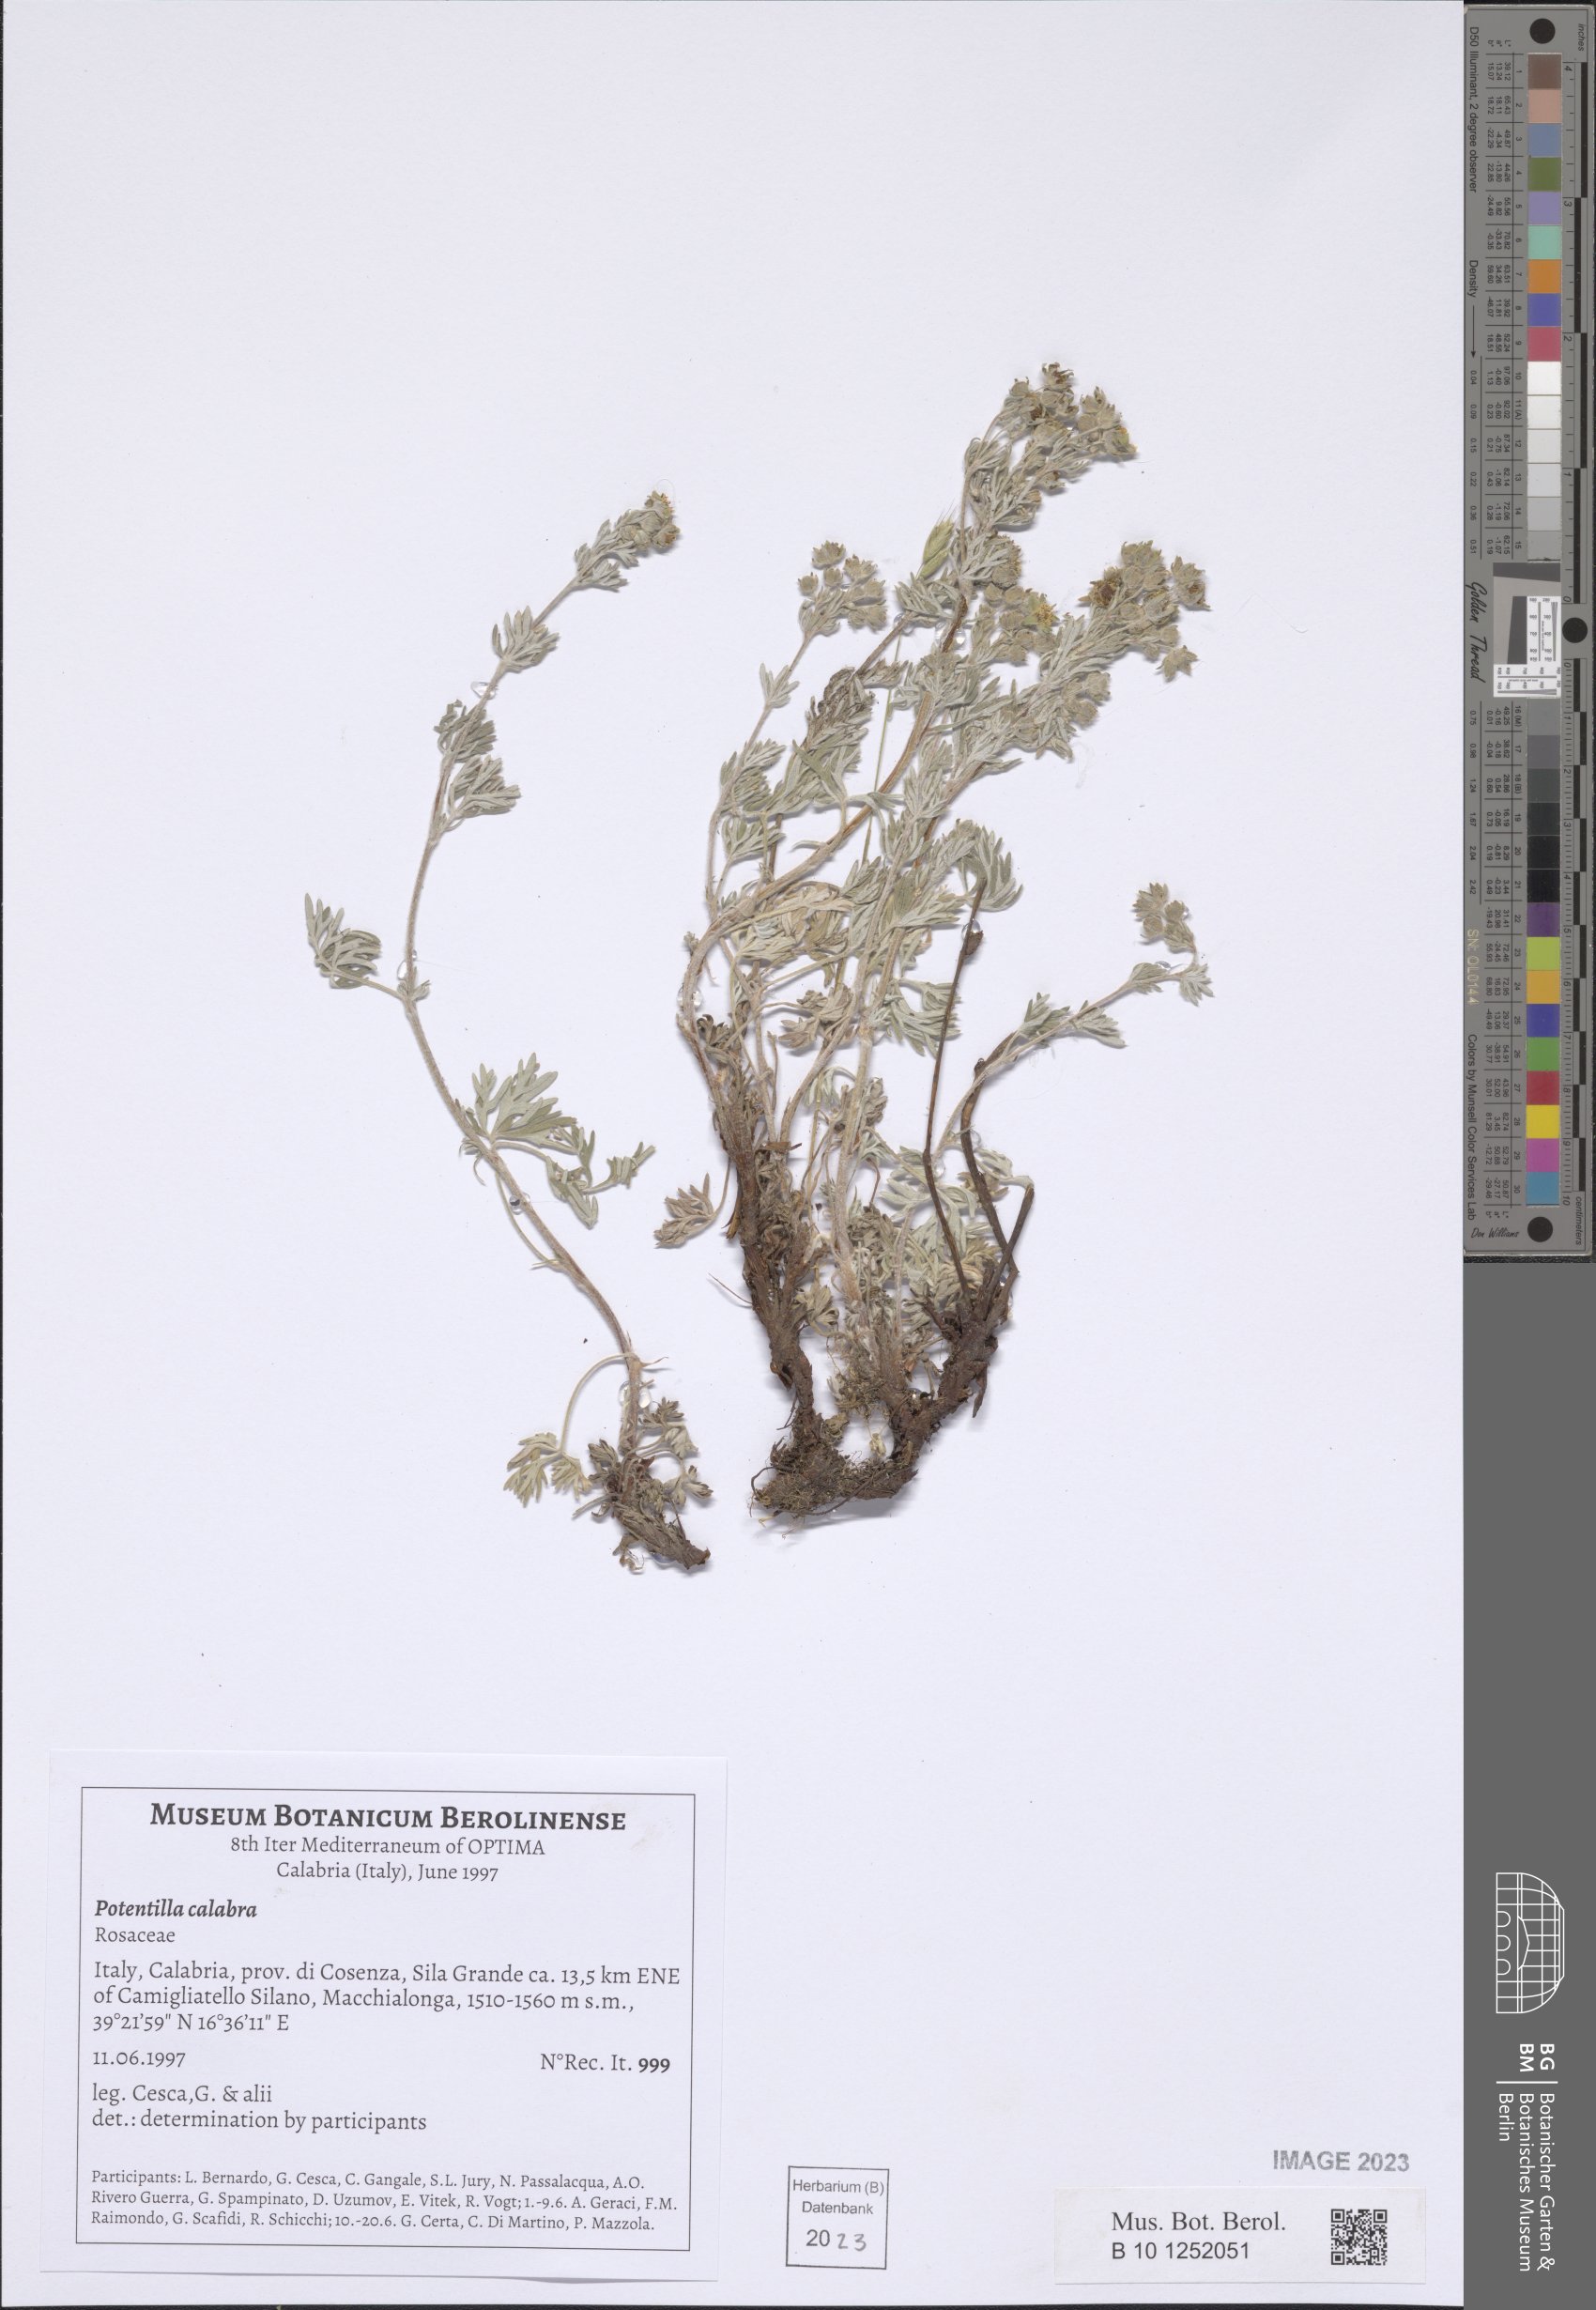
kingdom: Plantae
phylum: Tracheophyta
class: Magnoliopsida
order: Rosales
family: Rosaceae
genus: Potentilla
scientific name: Potentilla calabra
